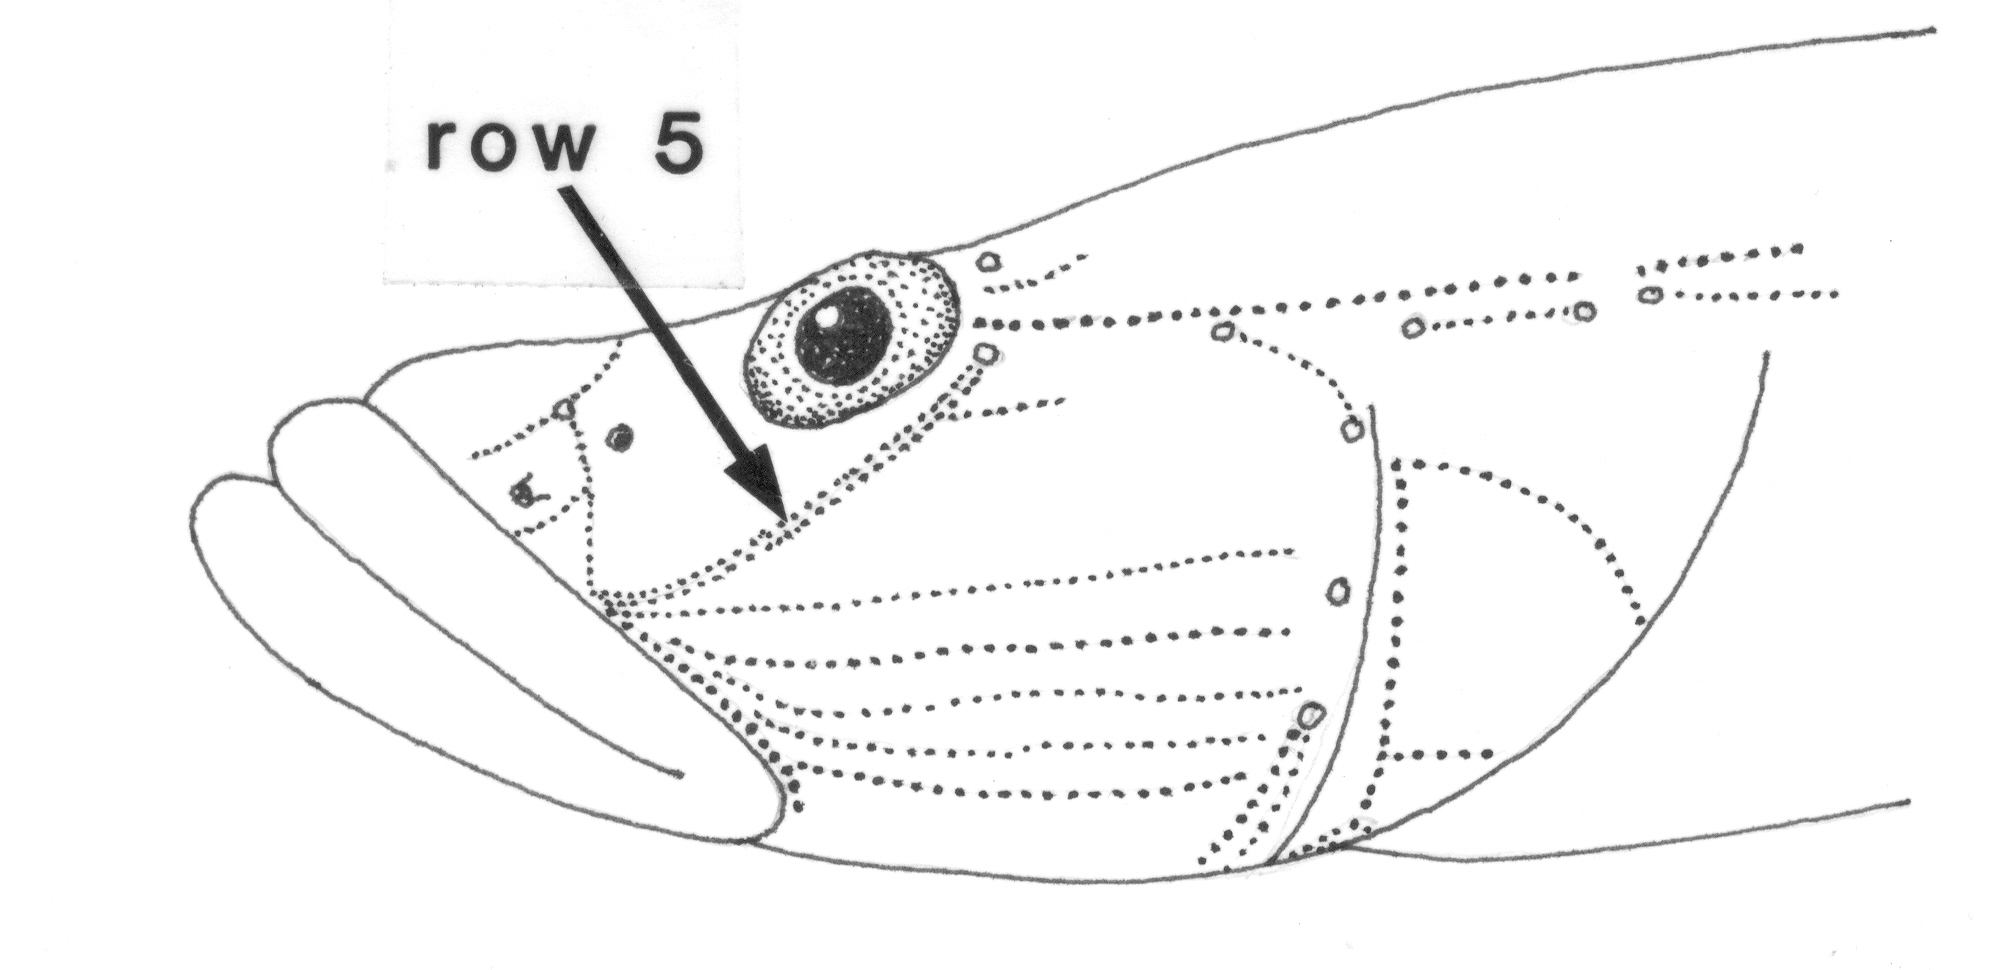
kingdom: Animalia
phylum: Chordata
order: Perciformes
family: Gobiidae
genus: Glossogobius
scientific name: Glossogobius callidus
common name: River goby
